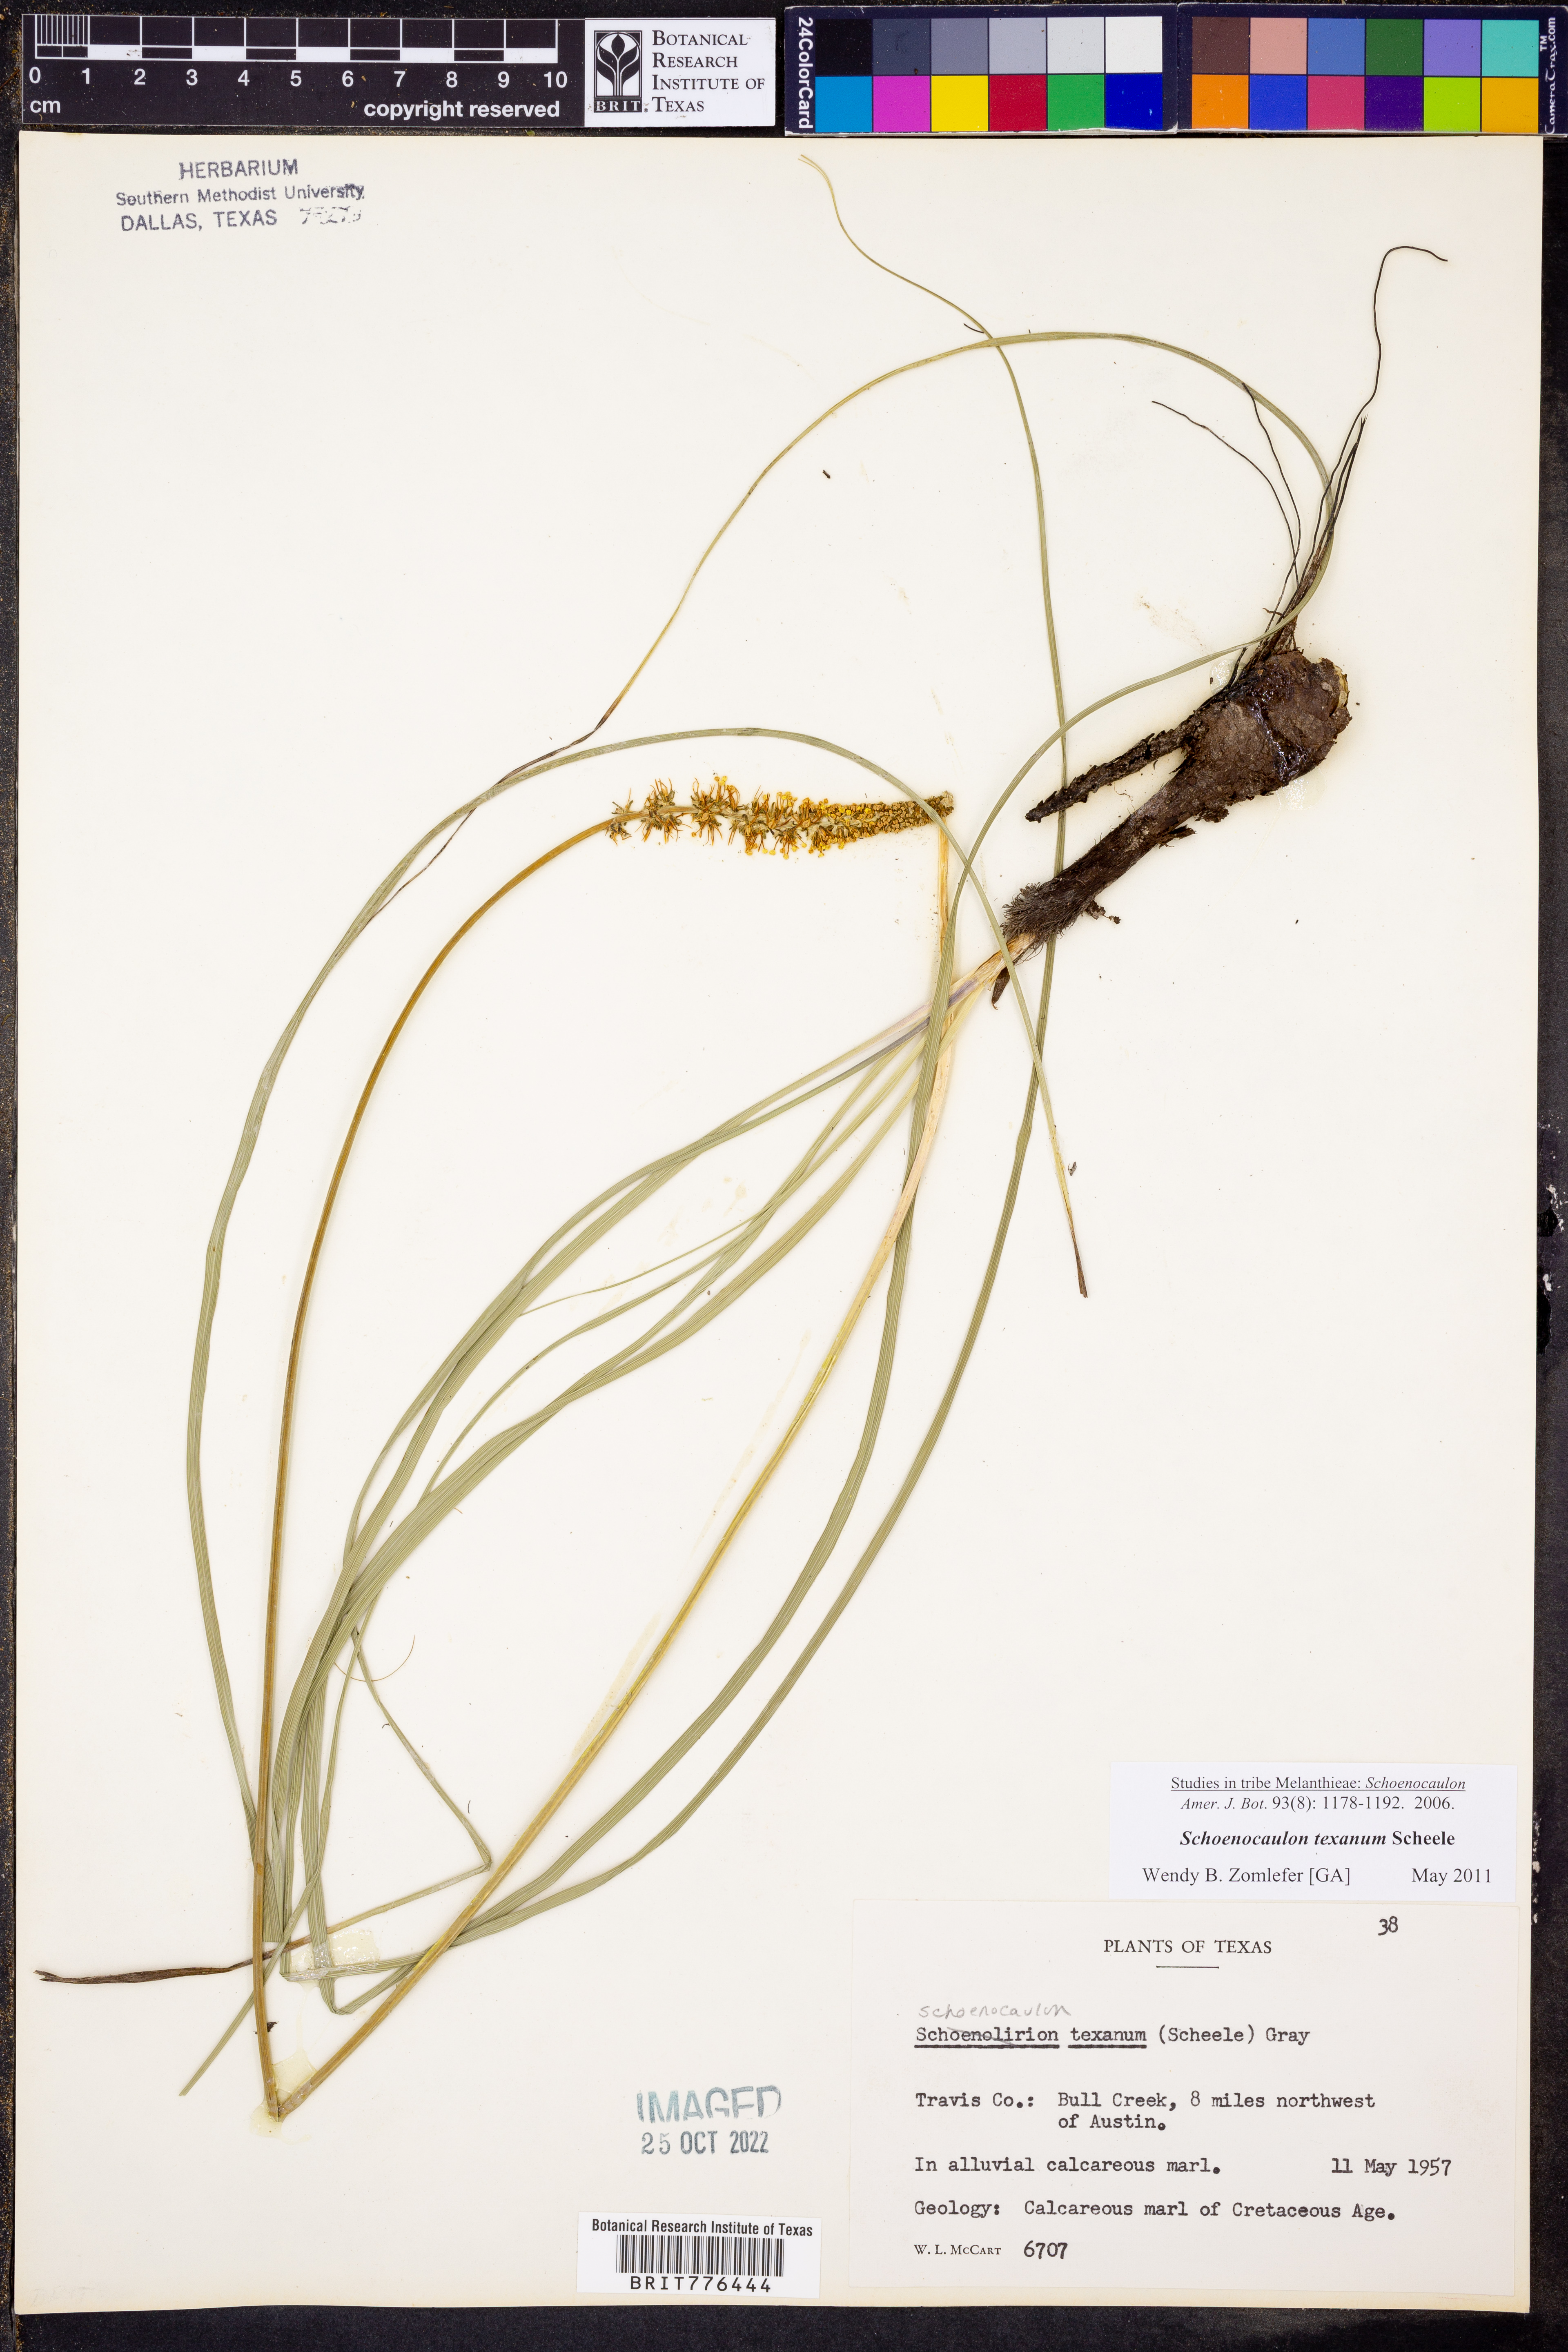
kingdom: Plantae
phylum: Tracheophyta
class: Liliopsida
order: Liliales
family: Melanthiaceae
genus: Schoenocaulon
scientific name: Schoenocaulon texanum
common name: Texas feather-shank
